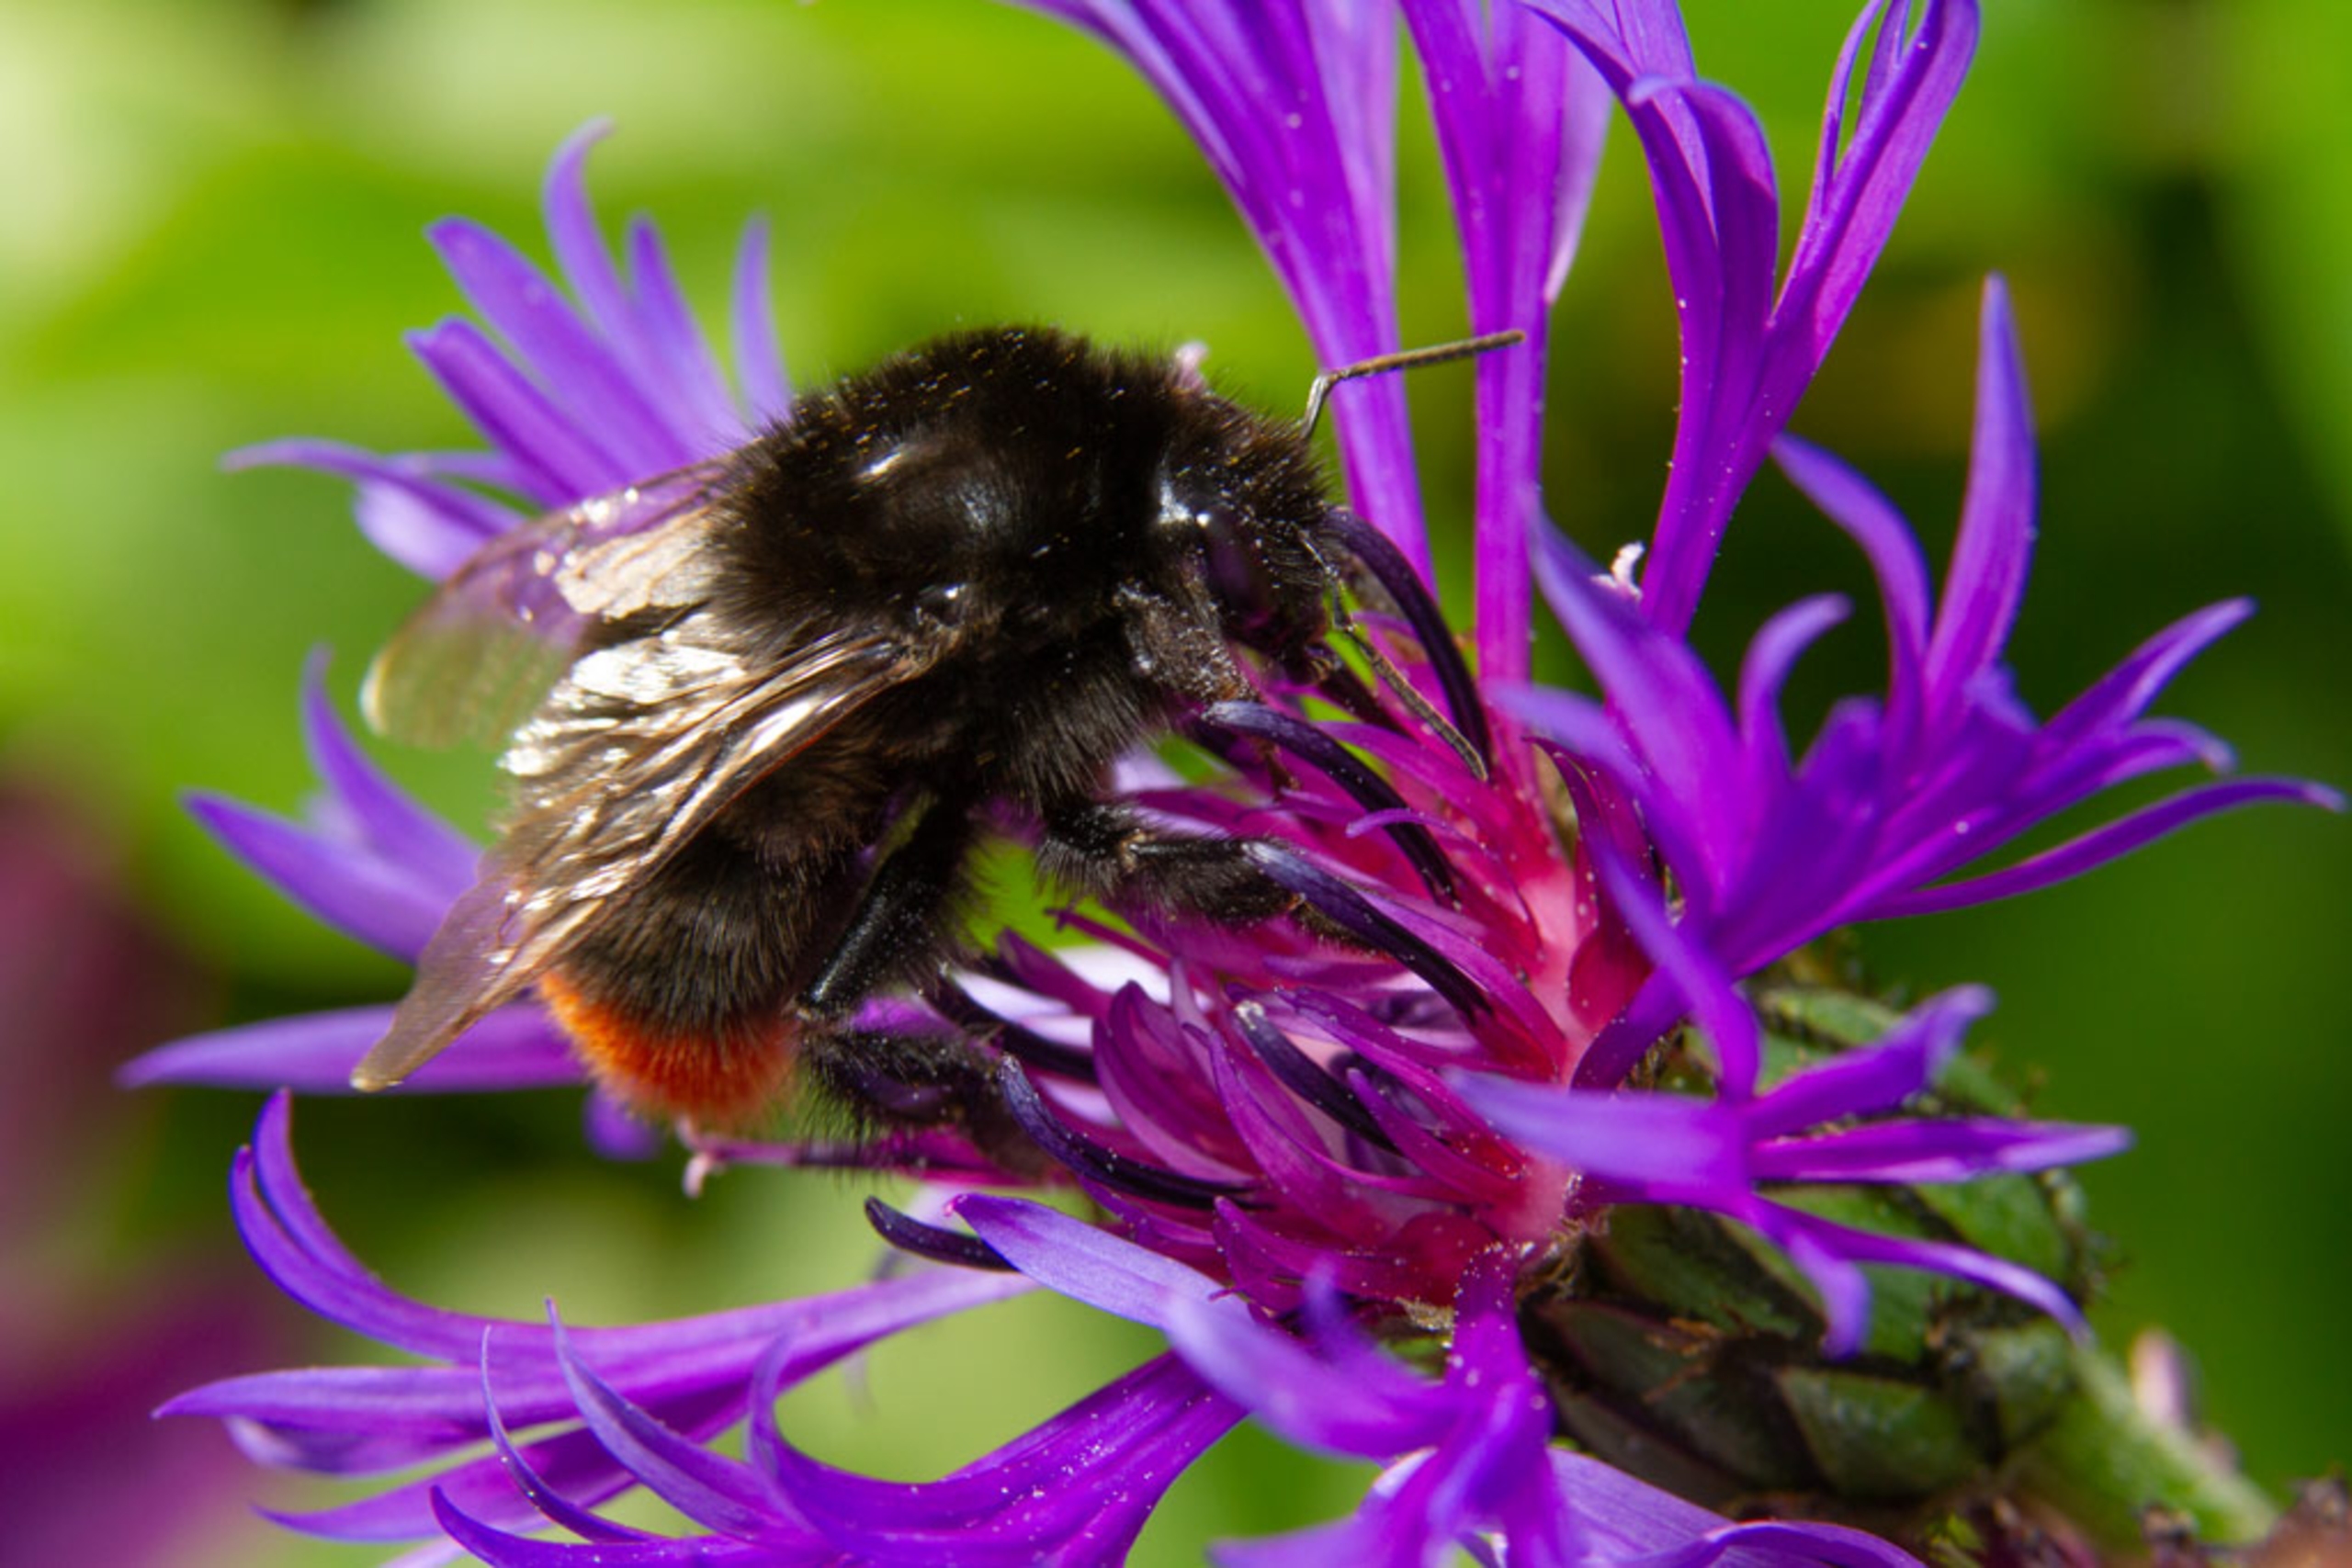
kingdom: Animalia
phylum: Arthropoda
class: Insecta
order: Hymenoptera
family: Apidae
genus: Bombus
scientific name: Bombus lapidarius
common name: Stenhumle
